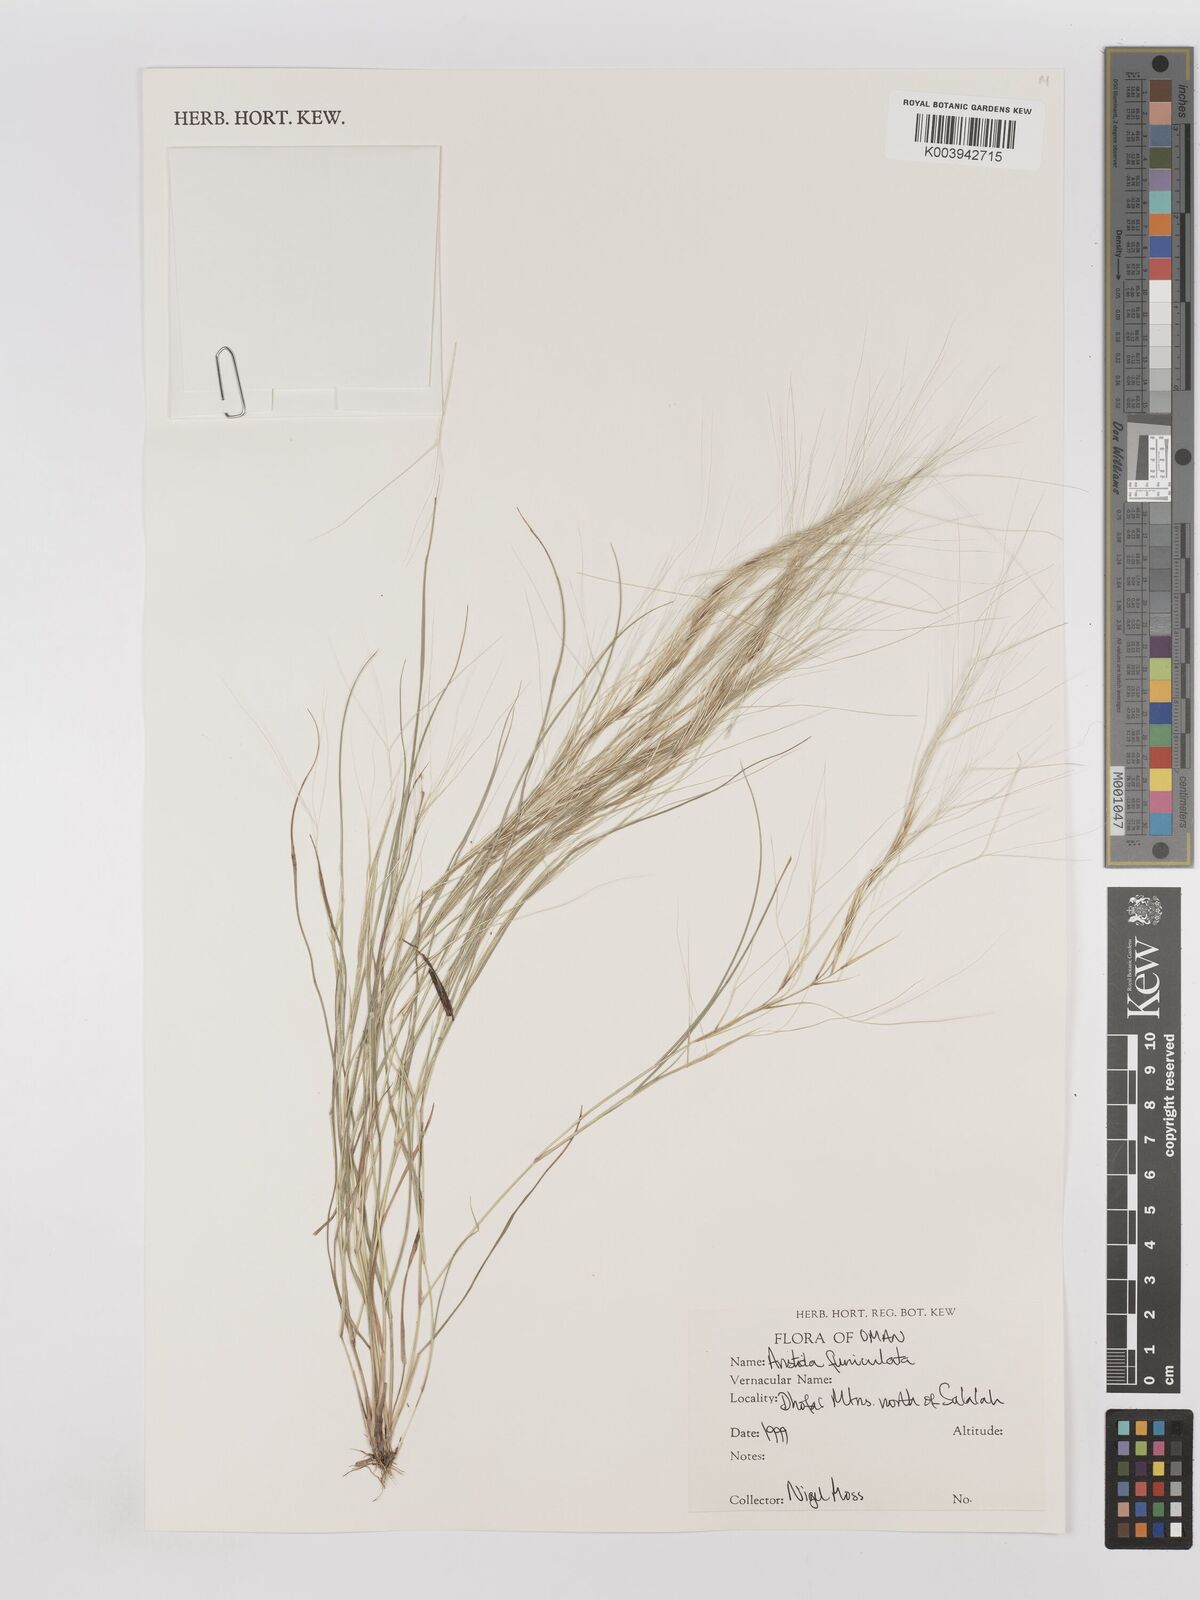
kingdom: Plantae
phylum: Tracheophyta
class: Liliopsida
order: Poales
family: Poaceae
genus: Aristida
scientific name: Aristida funiculata
